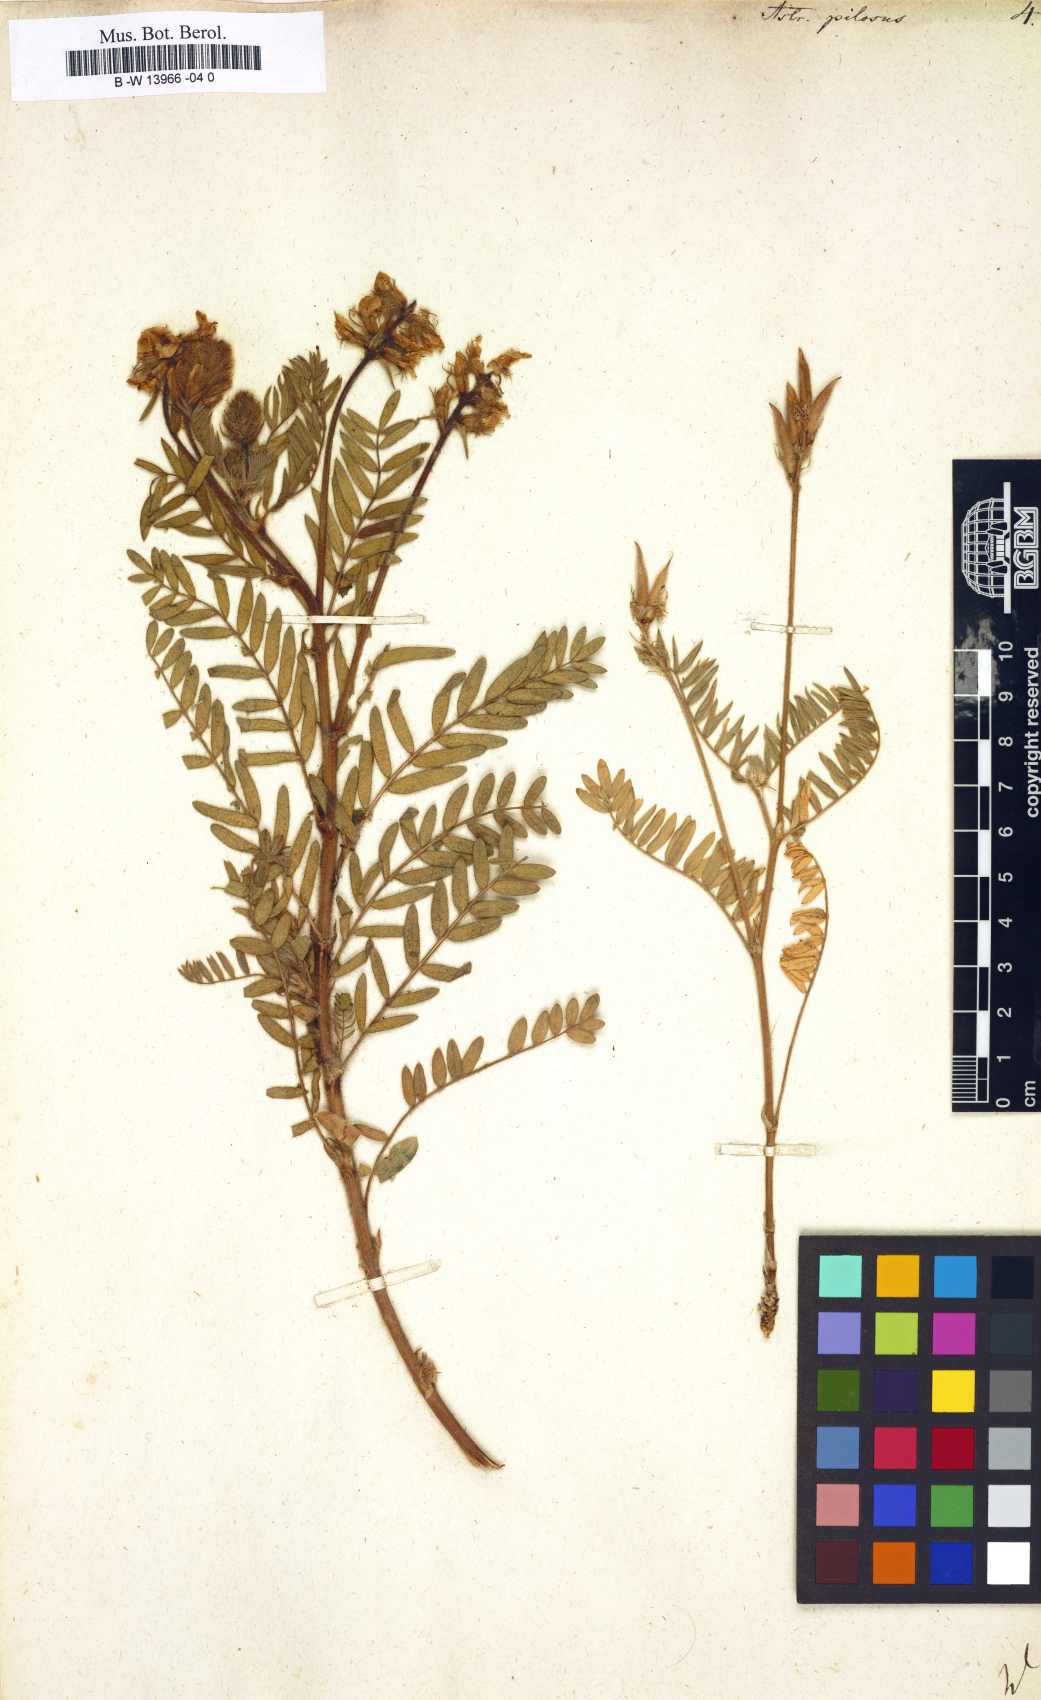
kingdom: Plantae
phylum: Tracheophyta
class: Magnoliopsida
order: Fabales
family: Fabaceae
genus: Oxytropis
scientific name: Oxytropis pilosa
